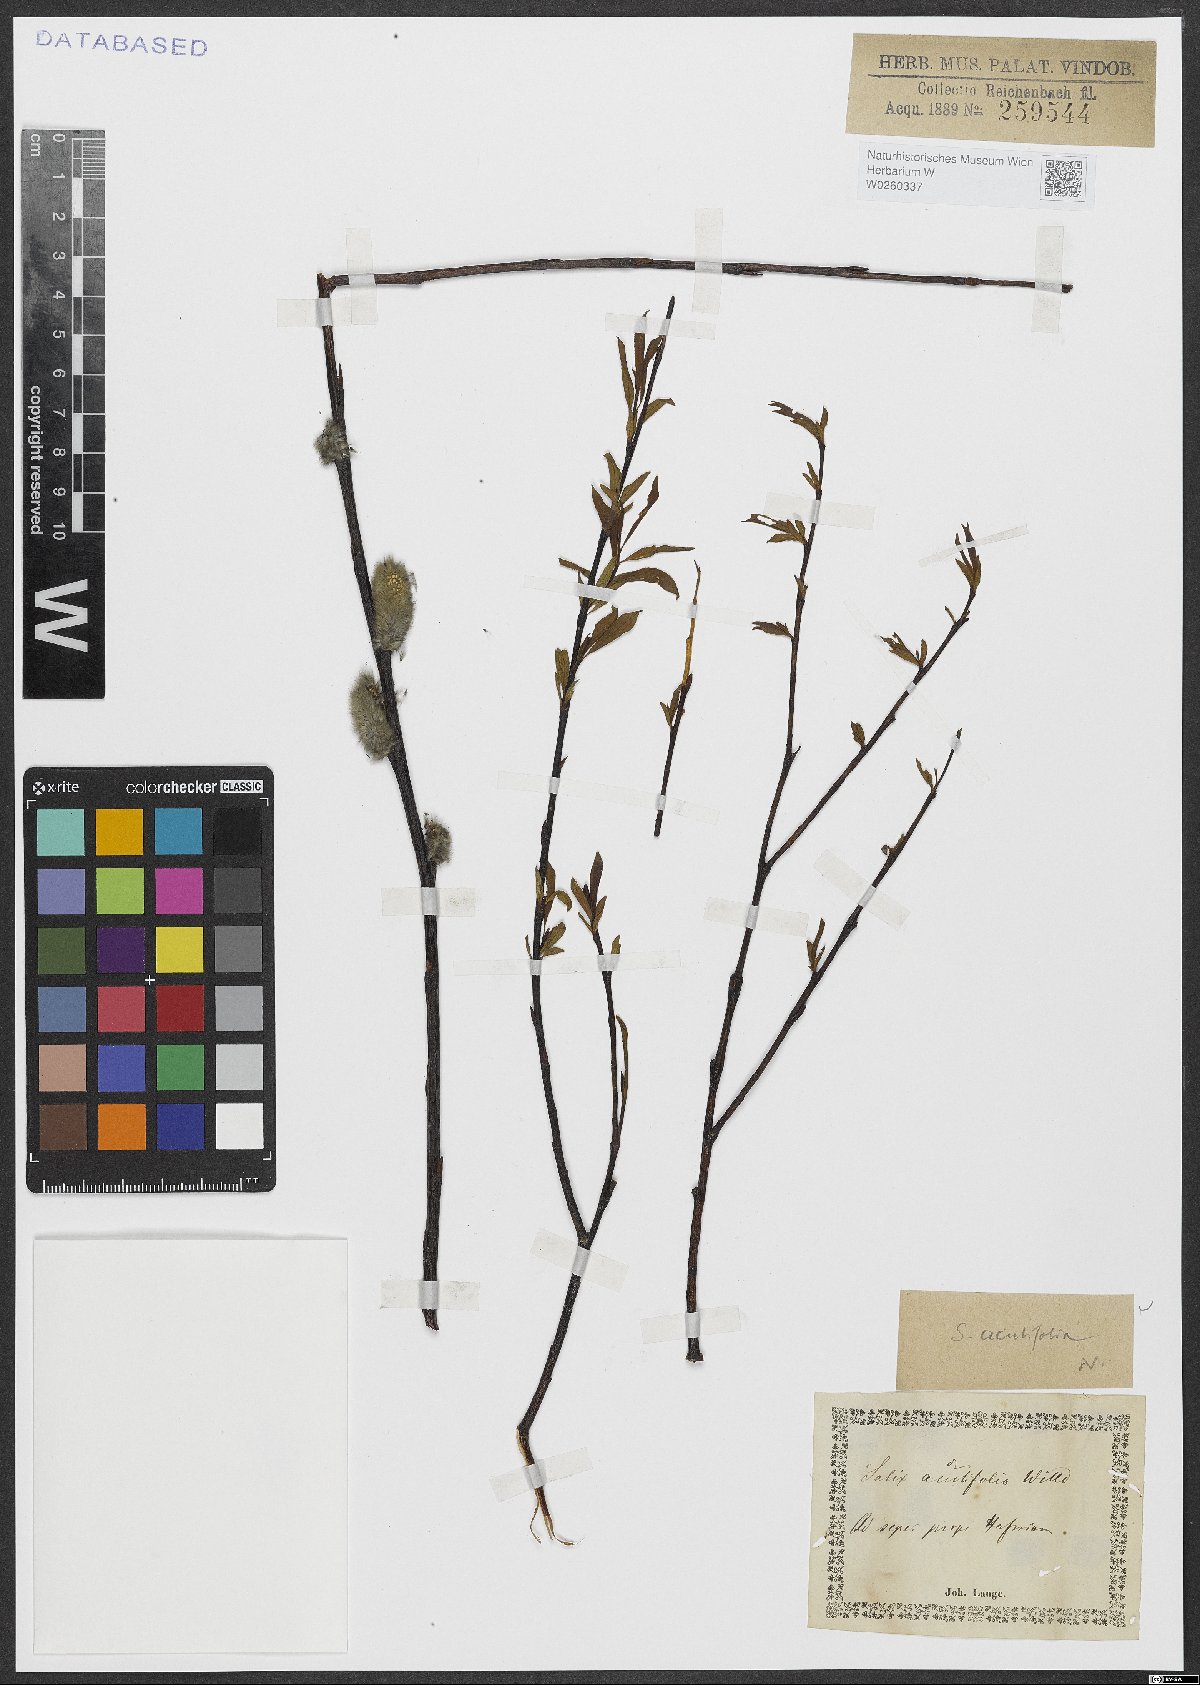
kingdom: Plantae
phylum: Tracheophyta
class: Magnoliopsida
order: Malpighiales
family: Salicaceae
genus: Salix
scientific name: Salix acutifolia
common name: Siberian violet-willow
